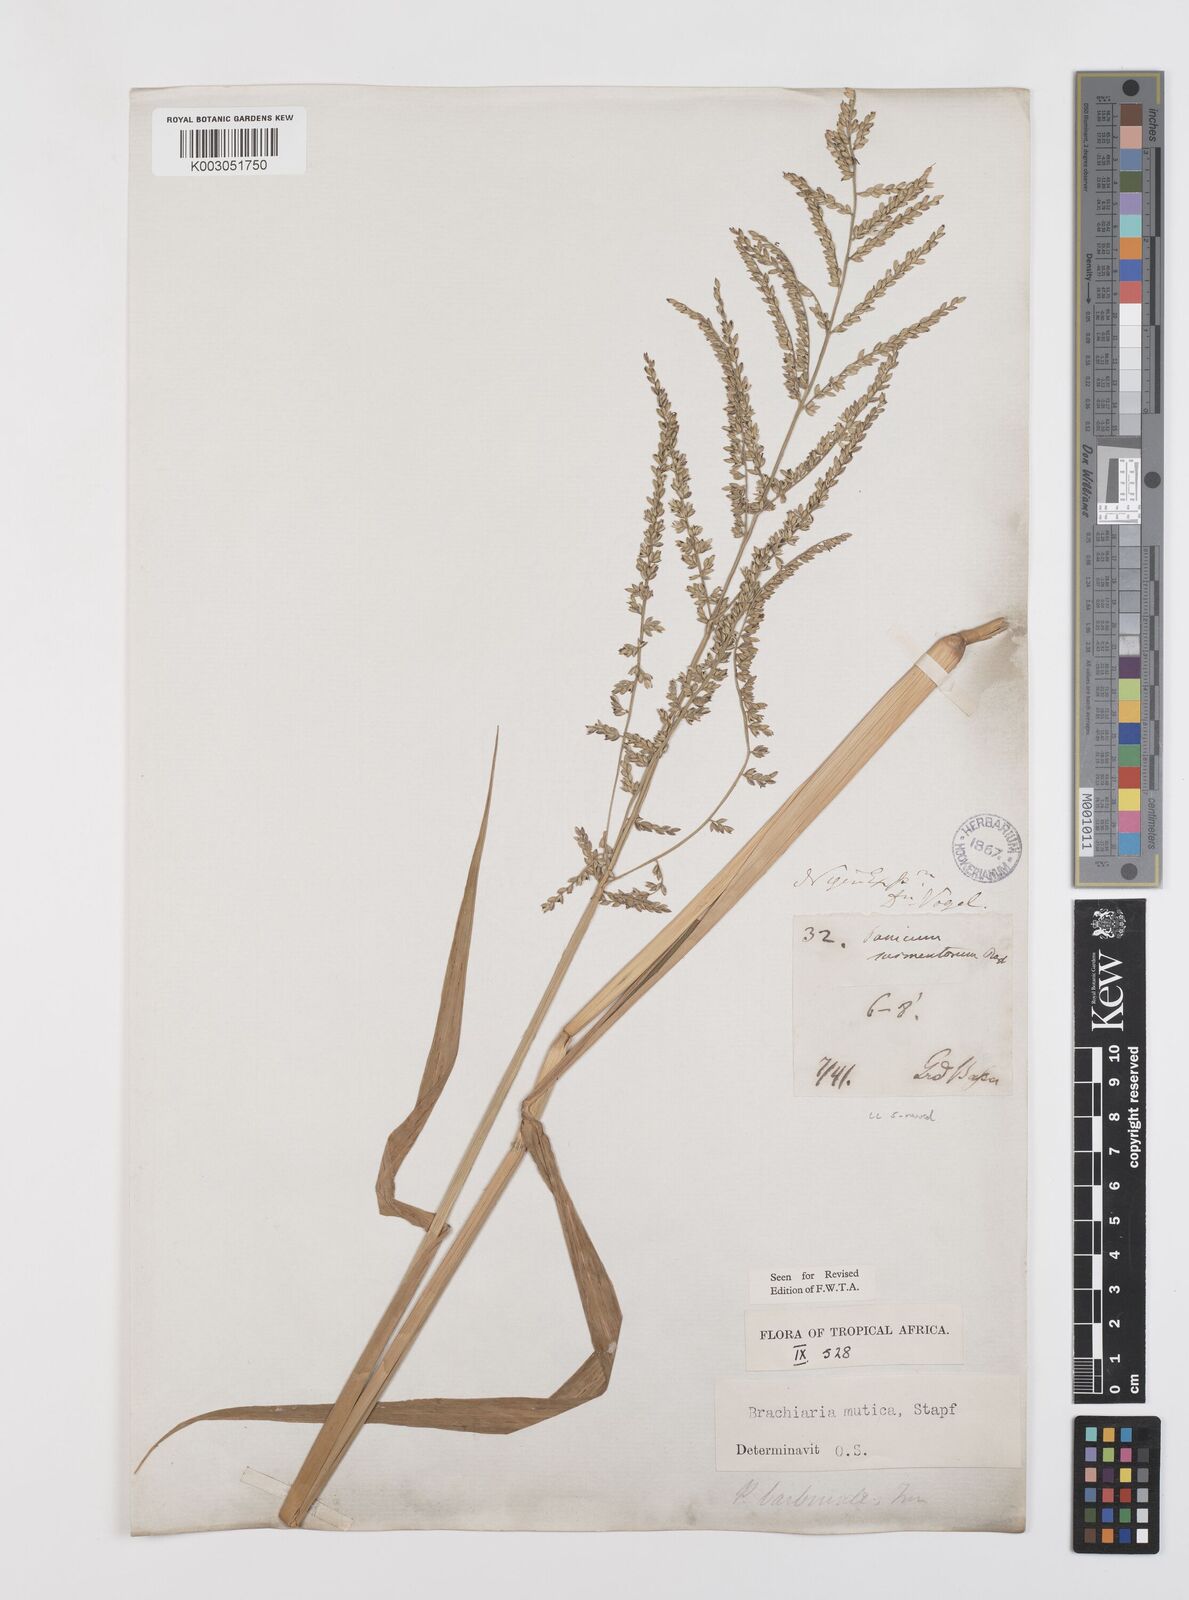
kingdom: Plantae
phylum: Tracheophyta
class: Liliopsida
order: Poales
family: Poaceae
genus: Urochloa
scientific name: Urochloa mutica
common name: Para grass
